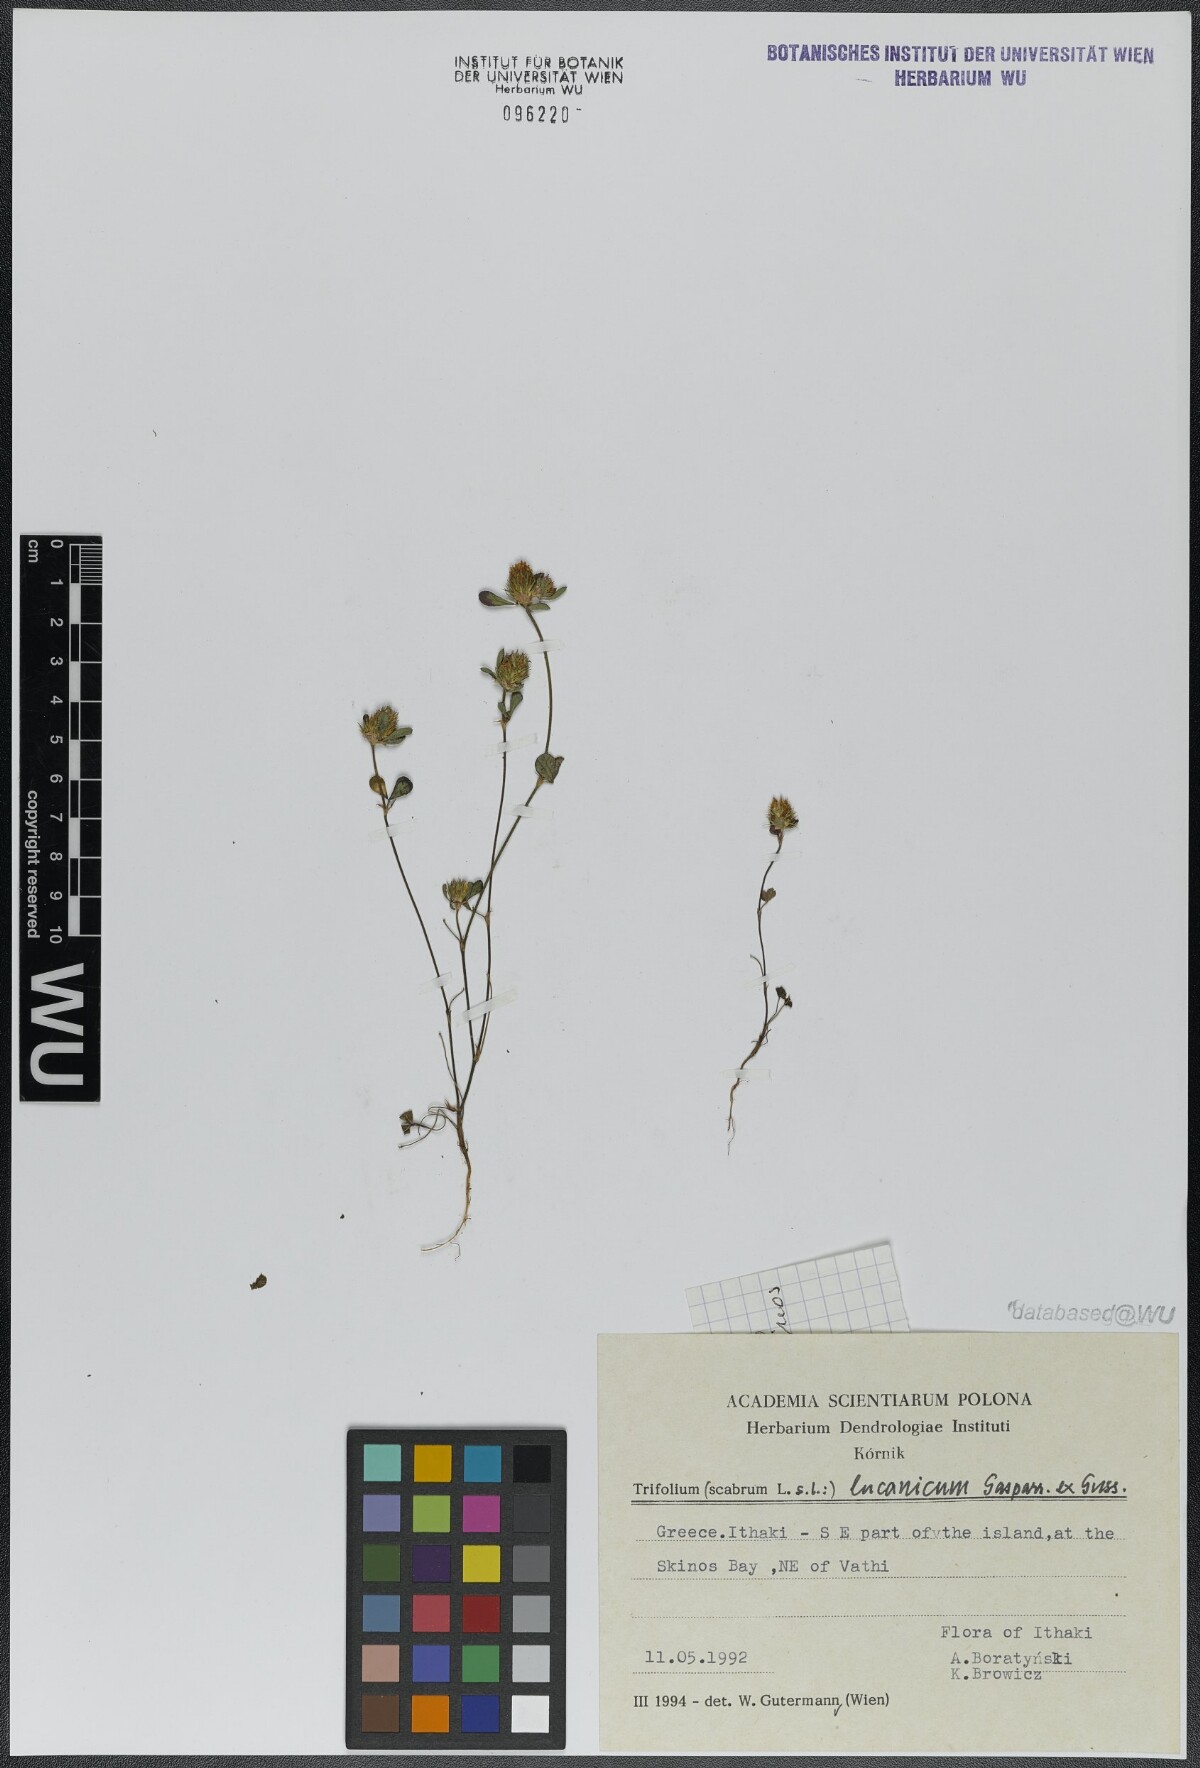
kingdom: Plantae
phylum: Tracheophyta
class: Magnoliopsida
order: Fabales
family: Fabaceae
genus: Trifolium
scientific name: Trifolium lucanicum
